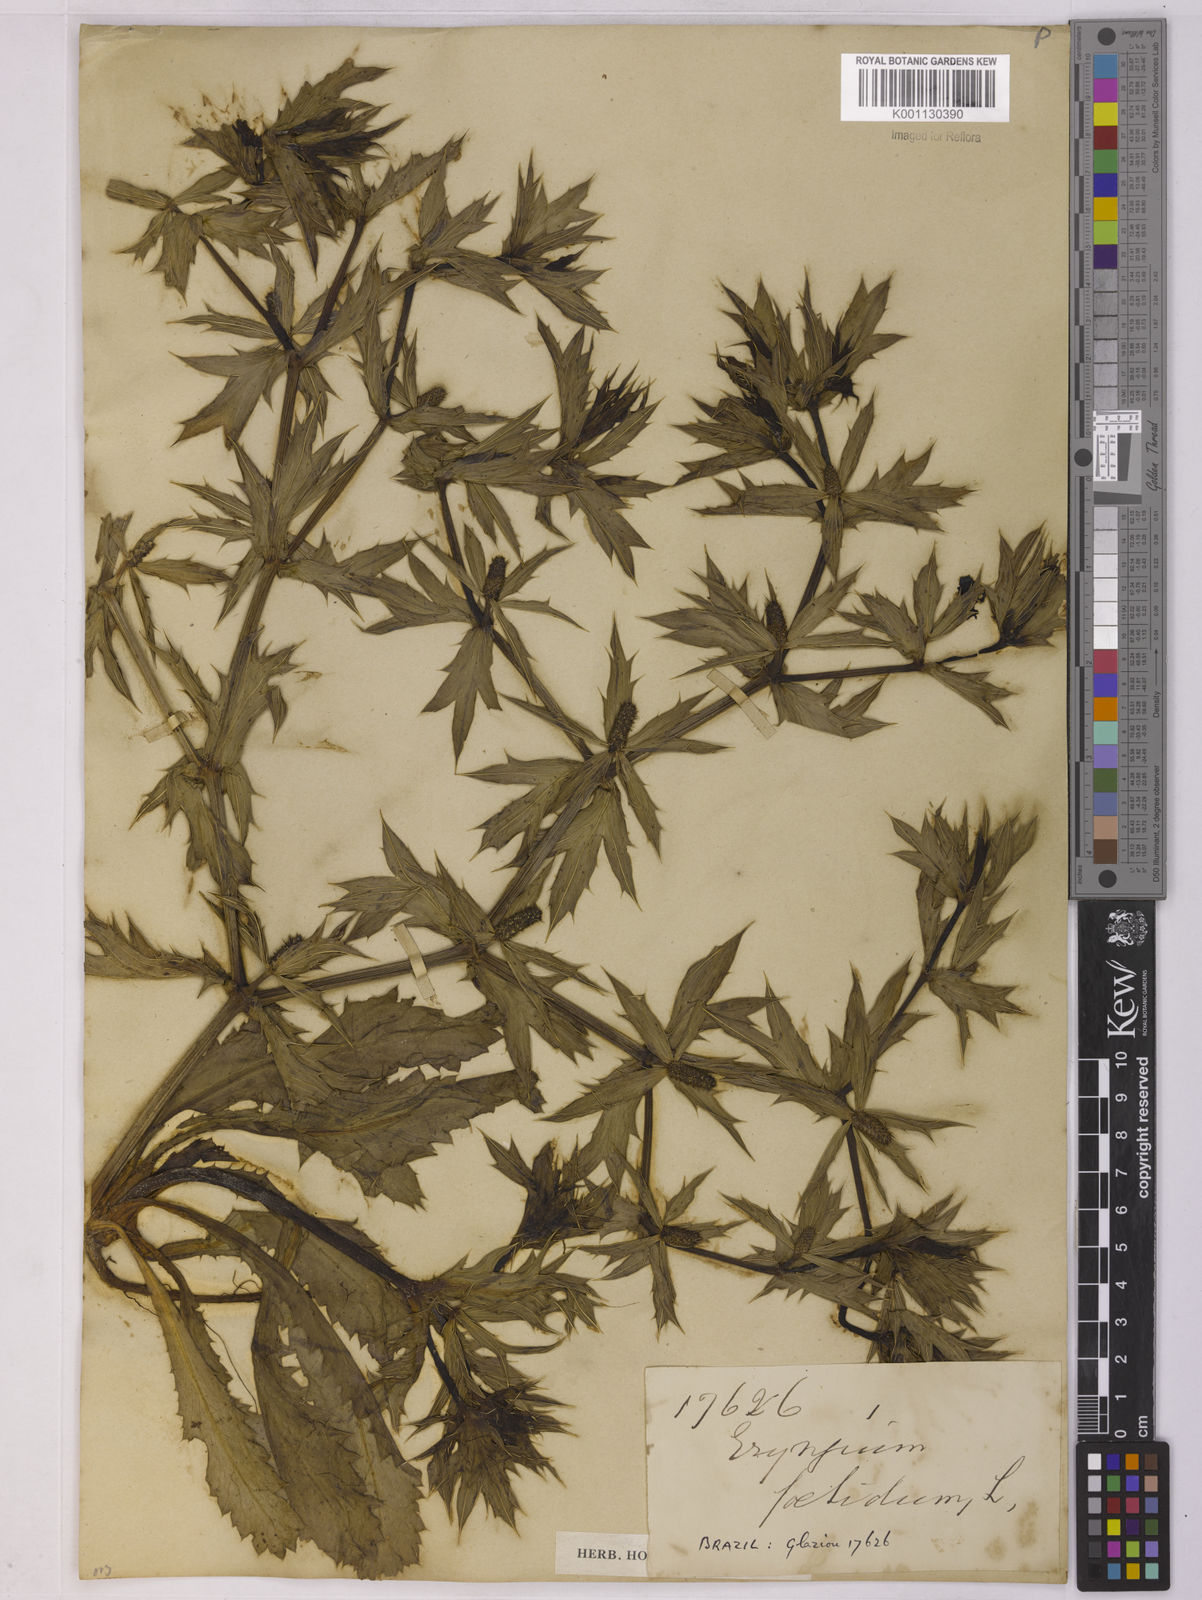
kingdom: Plantae
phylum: Tracheophyta
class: Magnoliopsida
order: Apiales
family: Apiaceae
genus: Eryngium
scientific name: Eryngium foetidum
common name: Fitweed
